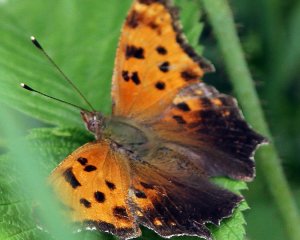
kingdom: Animalia
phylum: Arthropoda
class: Insecta
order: Lepidoptera
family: Nymphalidae
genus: Polygonia
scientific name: Polygonia comma
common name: Eastern Comma
